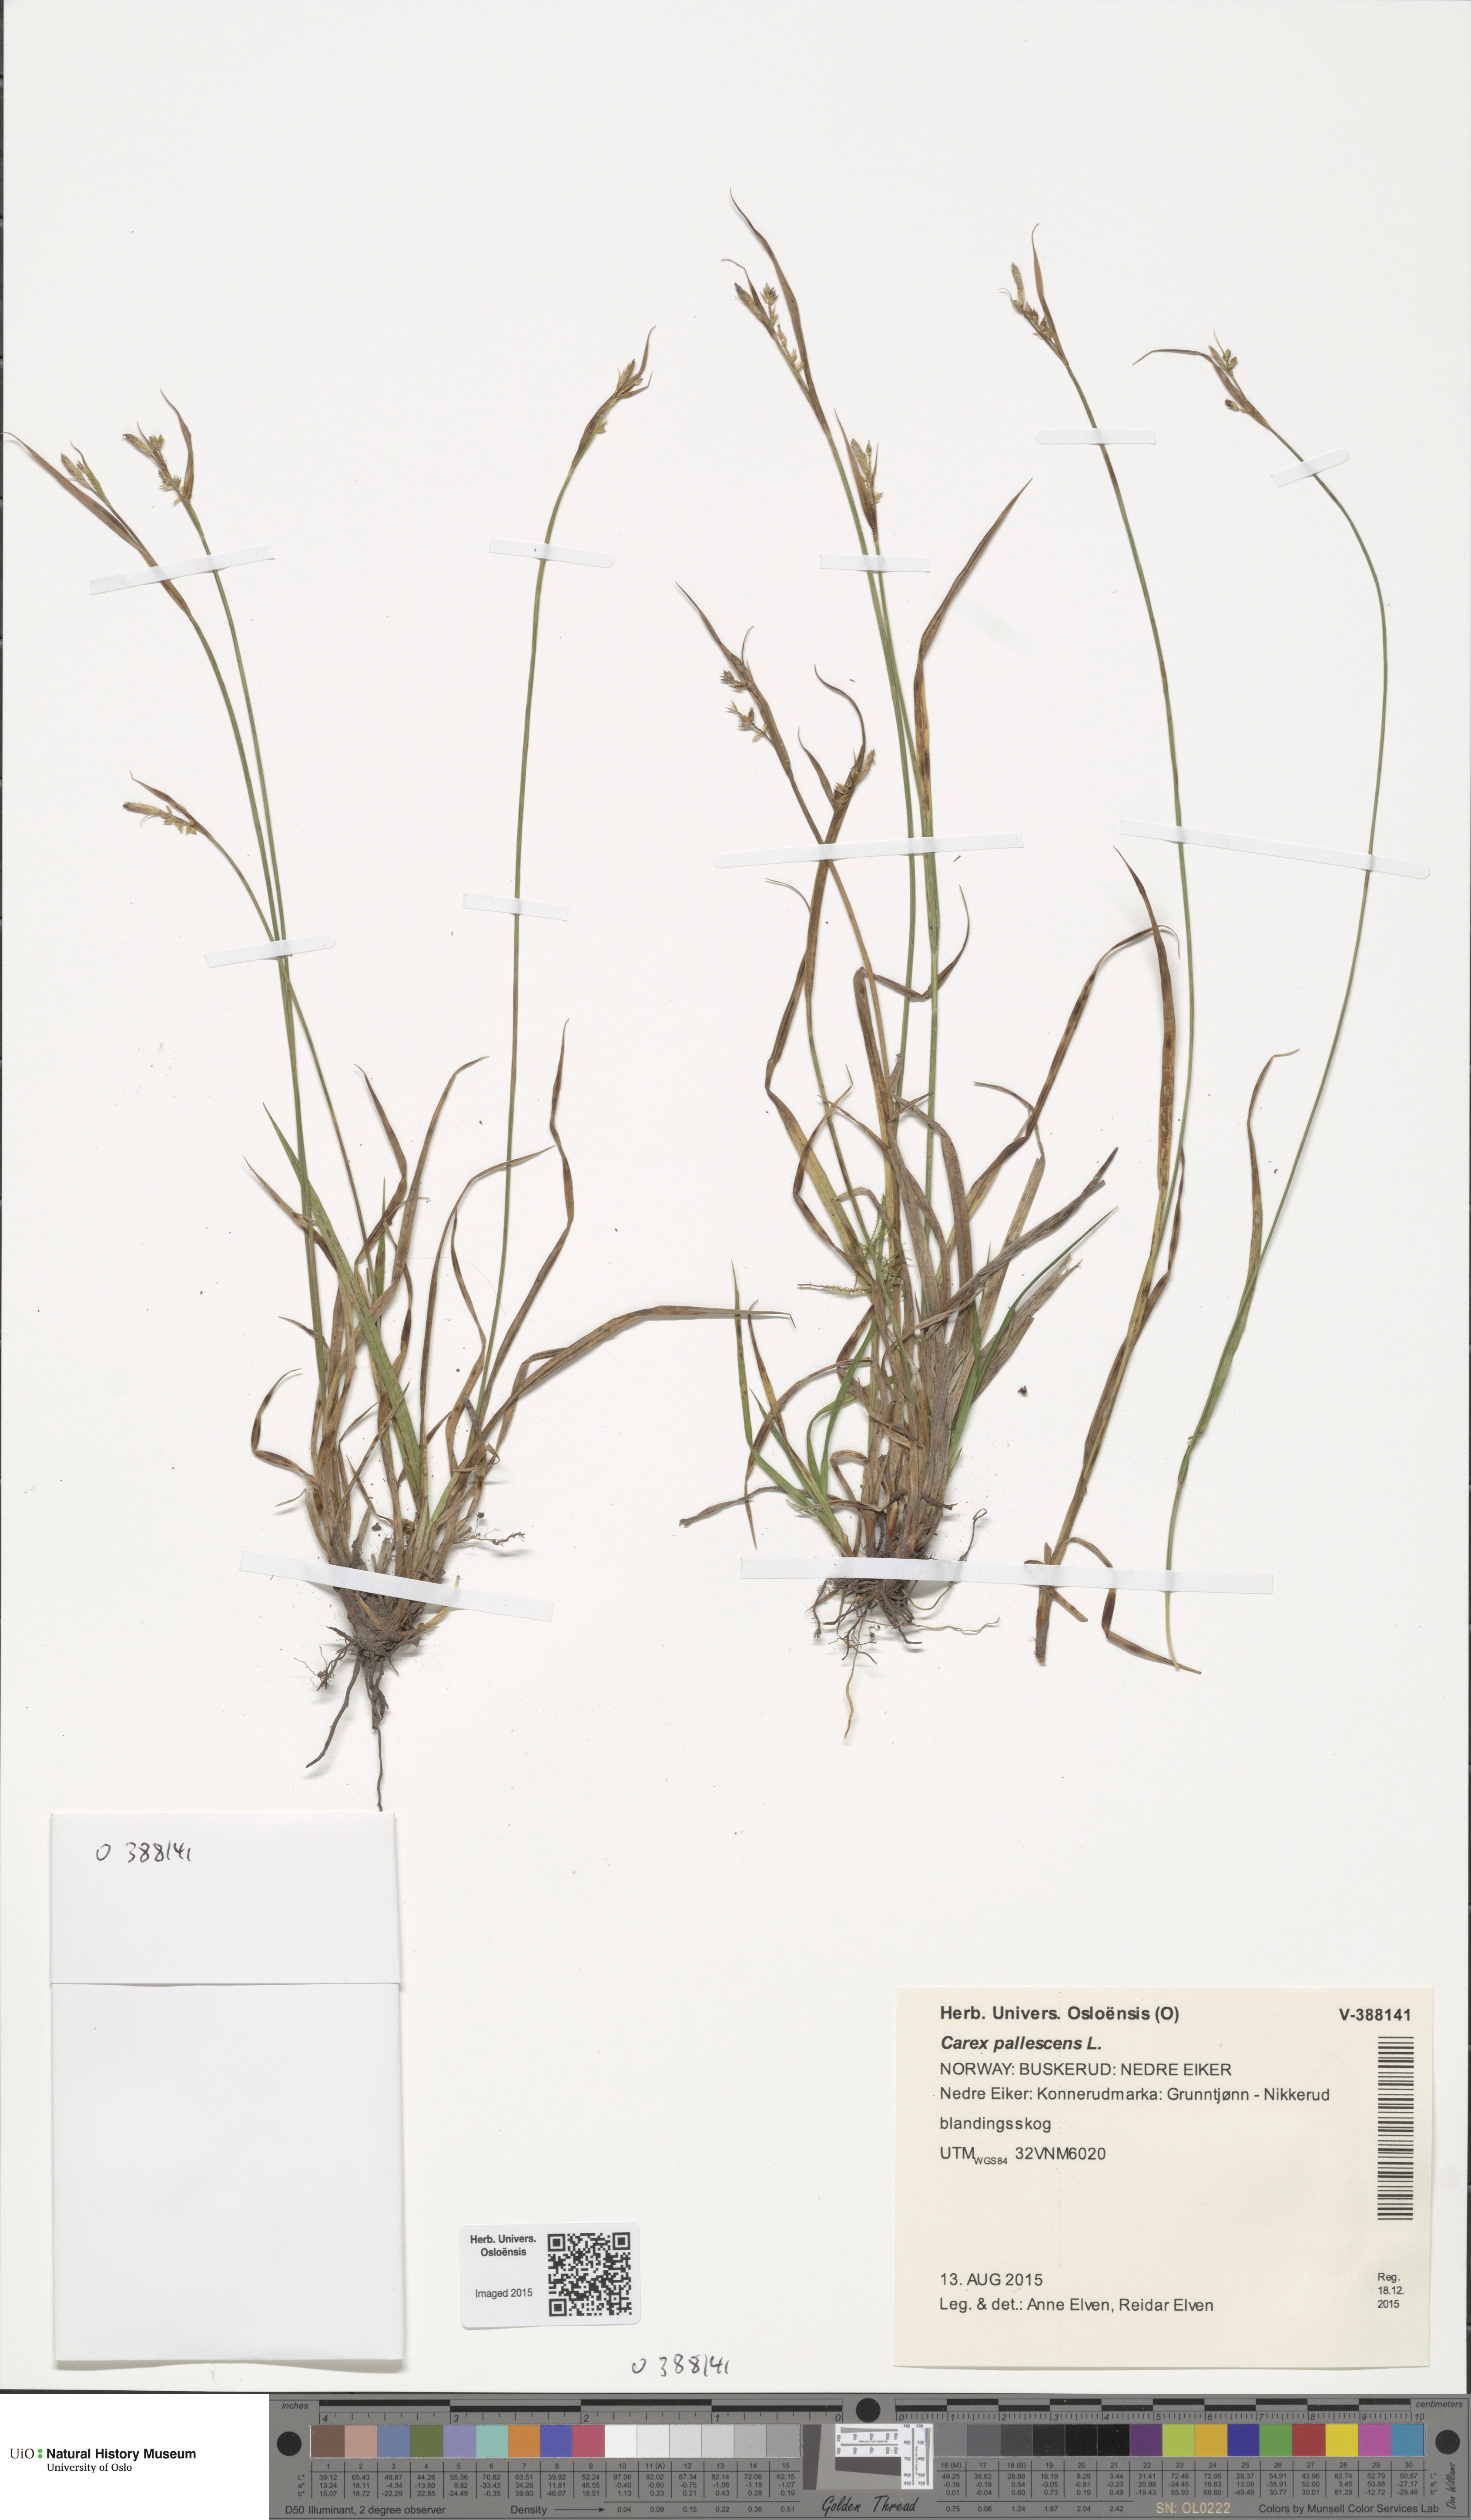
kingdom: Plantae
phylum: Tracheophyta
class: Liliopsida
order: Poales
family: Cyperaceae
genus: Carex
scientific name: Carex pallescens
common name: Pale sedge
